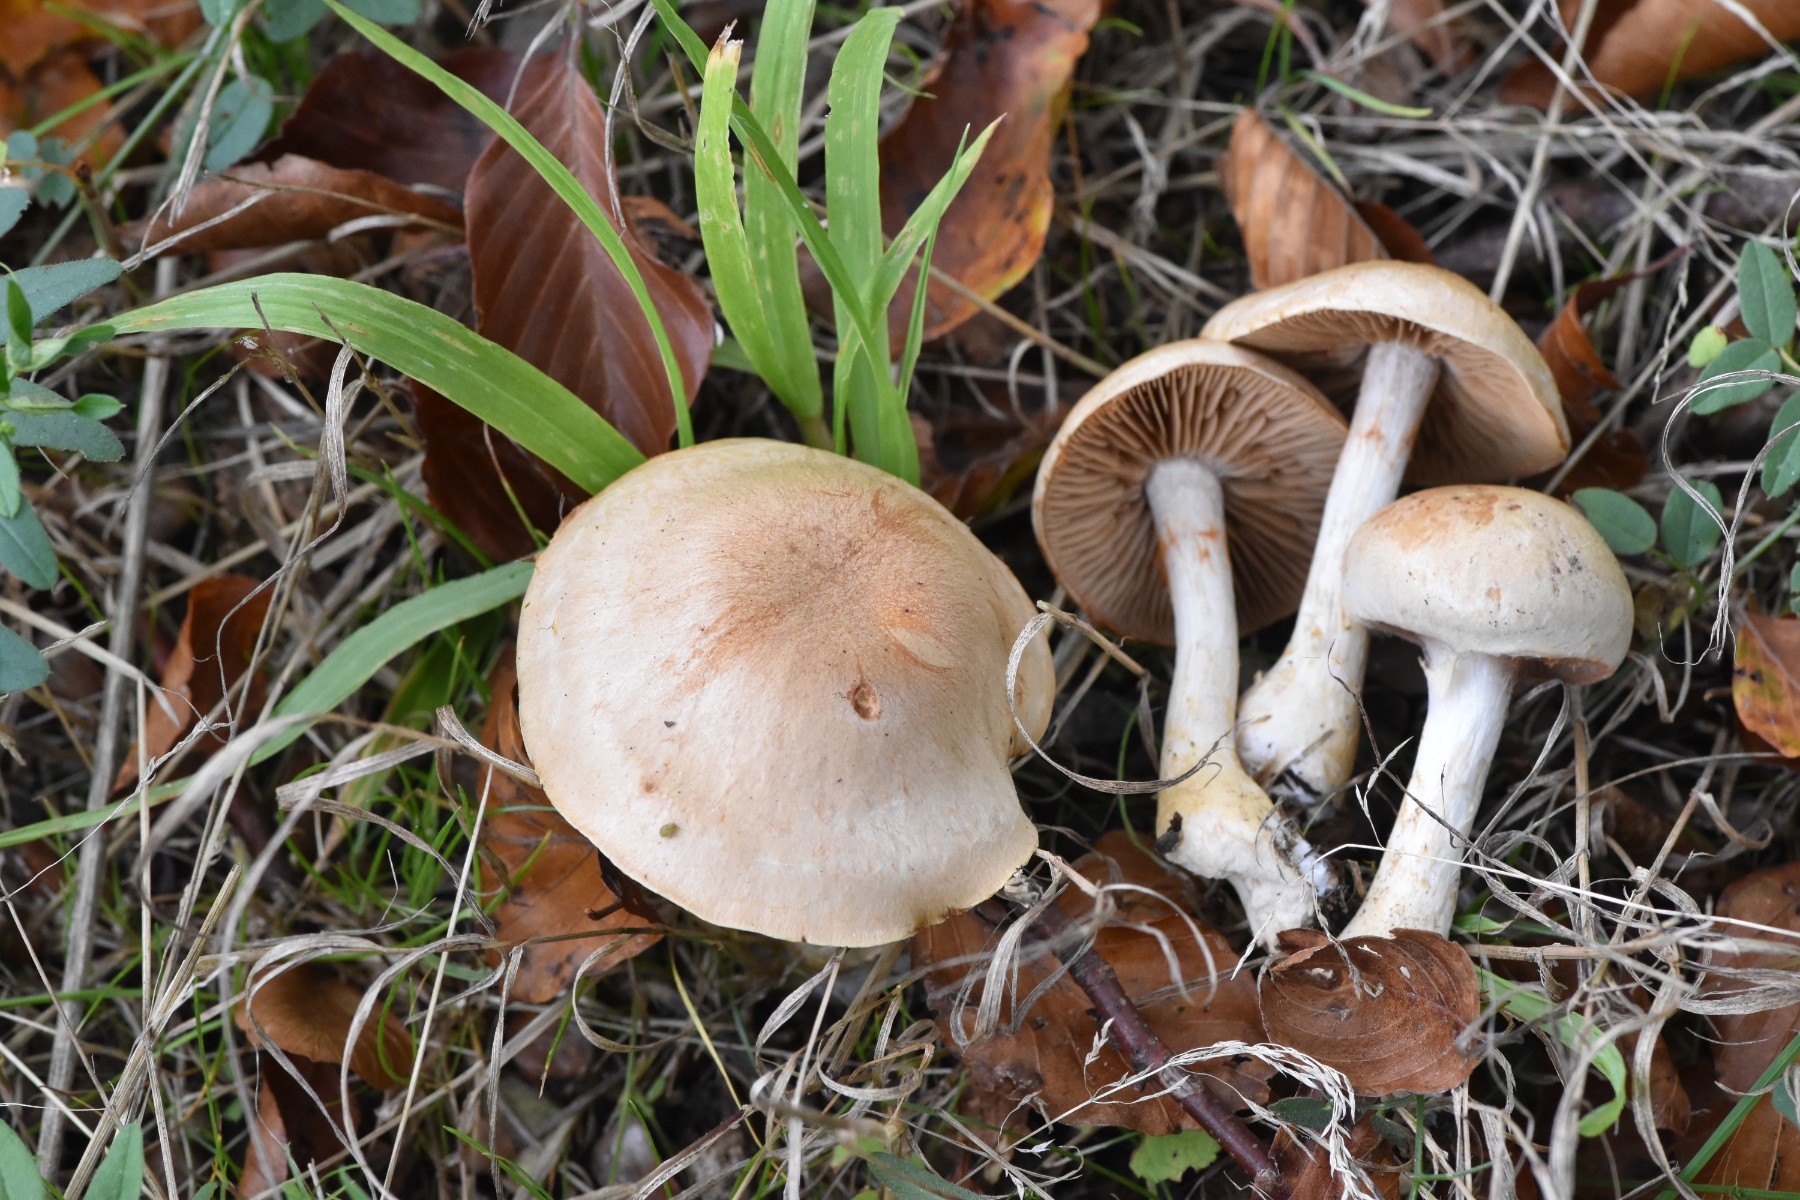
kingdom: Fungi
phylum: Basidiomycota
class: Agaricomycetes
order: Agaricales
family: Cortinariaceae
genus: Cortinarius
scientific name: Cortinarius
